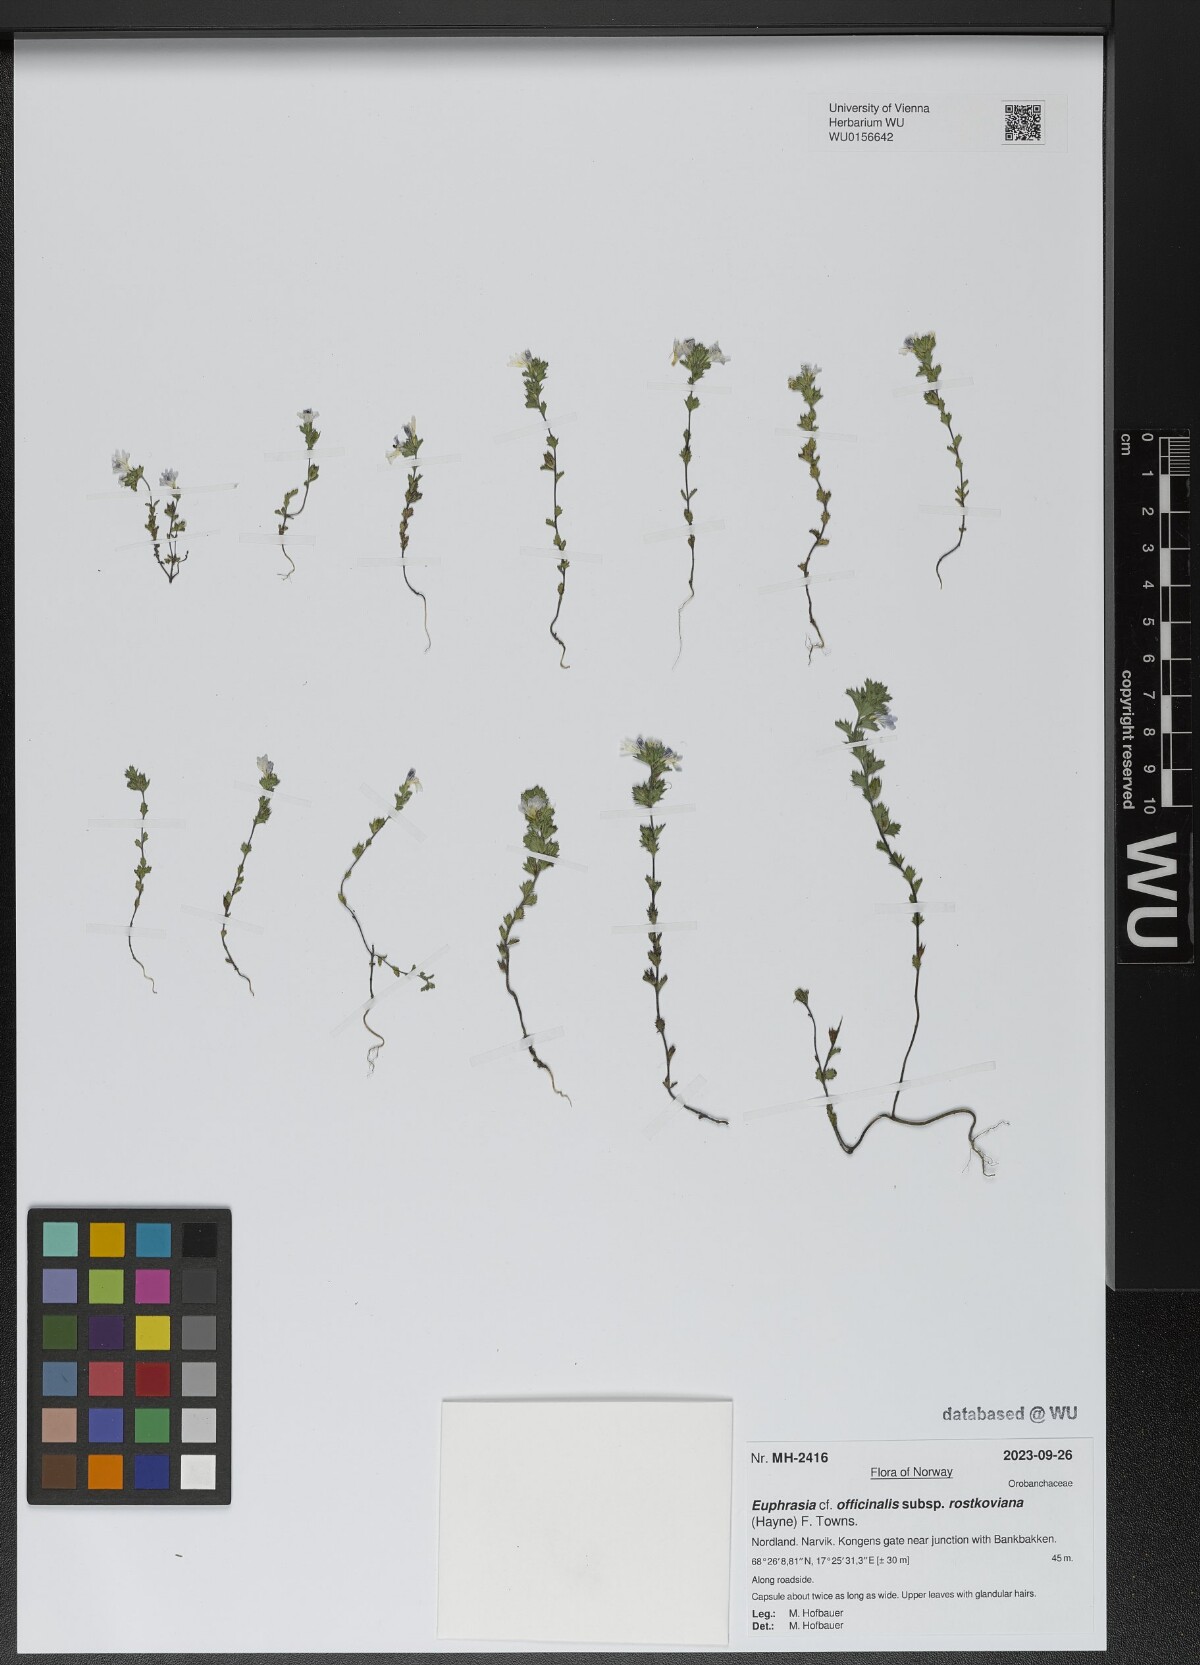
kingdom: Plantae
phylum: Tracheophyta
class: Magnoliopsida
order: Lamiales
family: Orobanchaceae
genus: Euphrasia
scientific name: Euphrasia officinalis
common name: Eyebright
